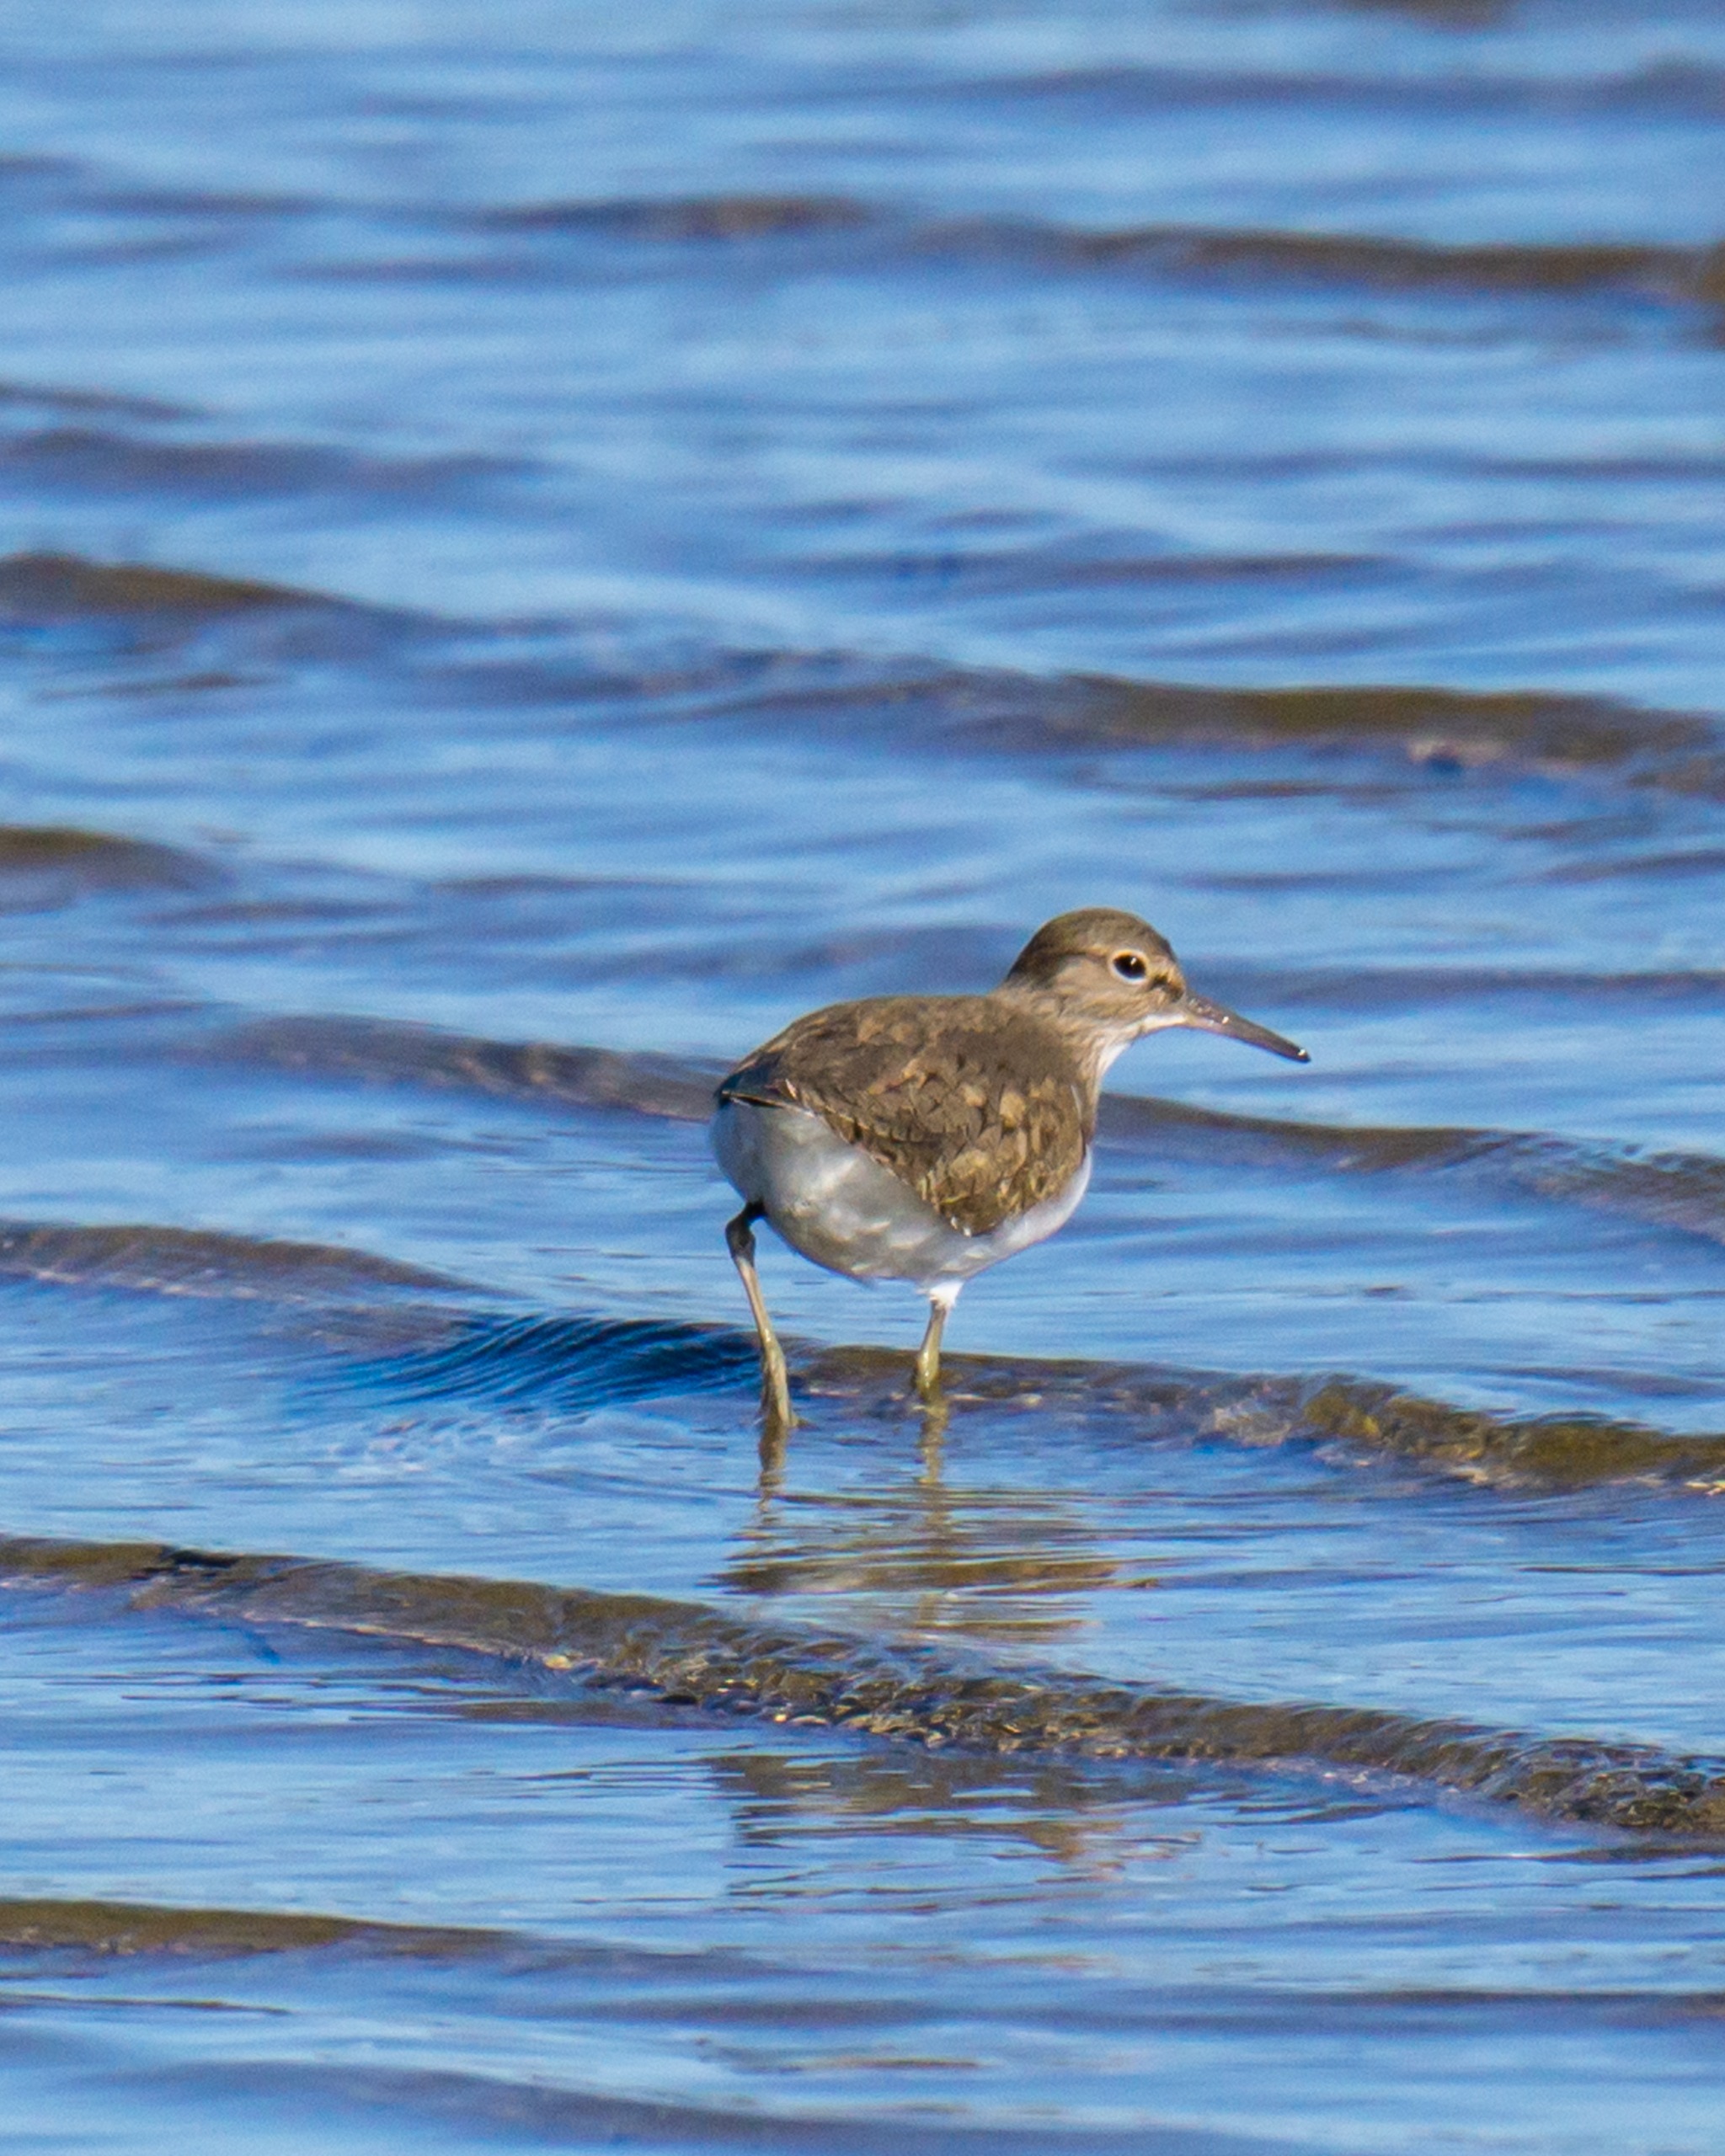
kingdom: Animalia
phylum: Chordata
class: Aves
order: Charadriiformes
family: Scolopacidae
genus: Actitis
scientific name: Actitis hypoleucos
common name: Mudderklire
